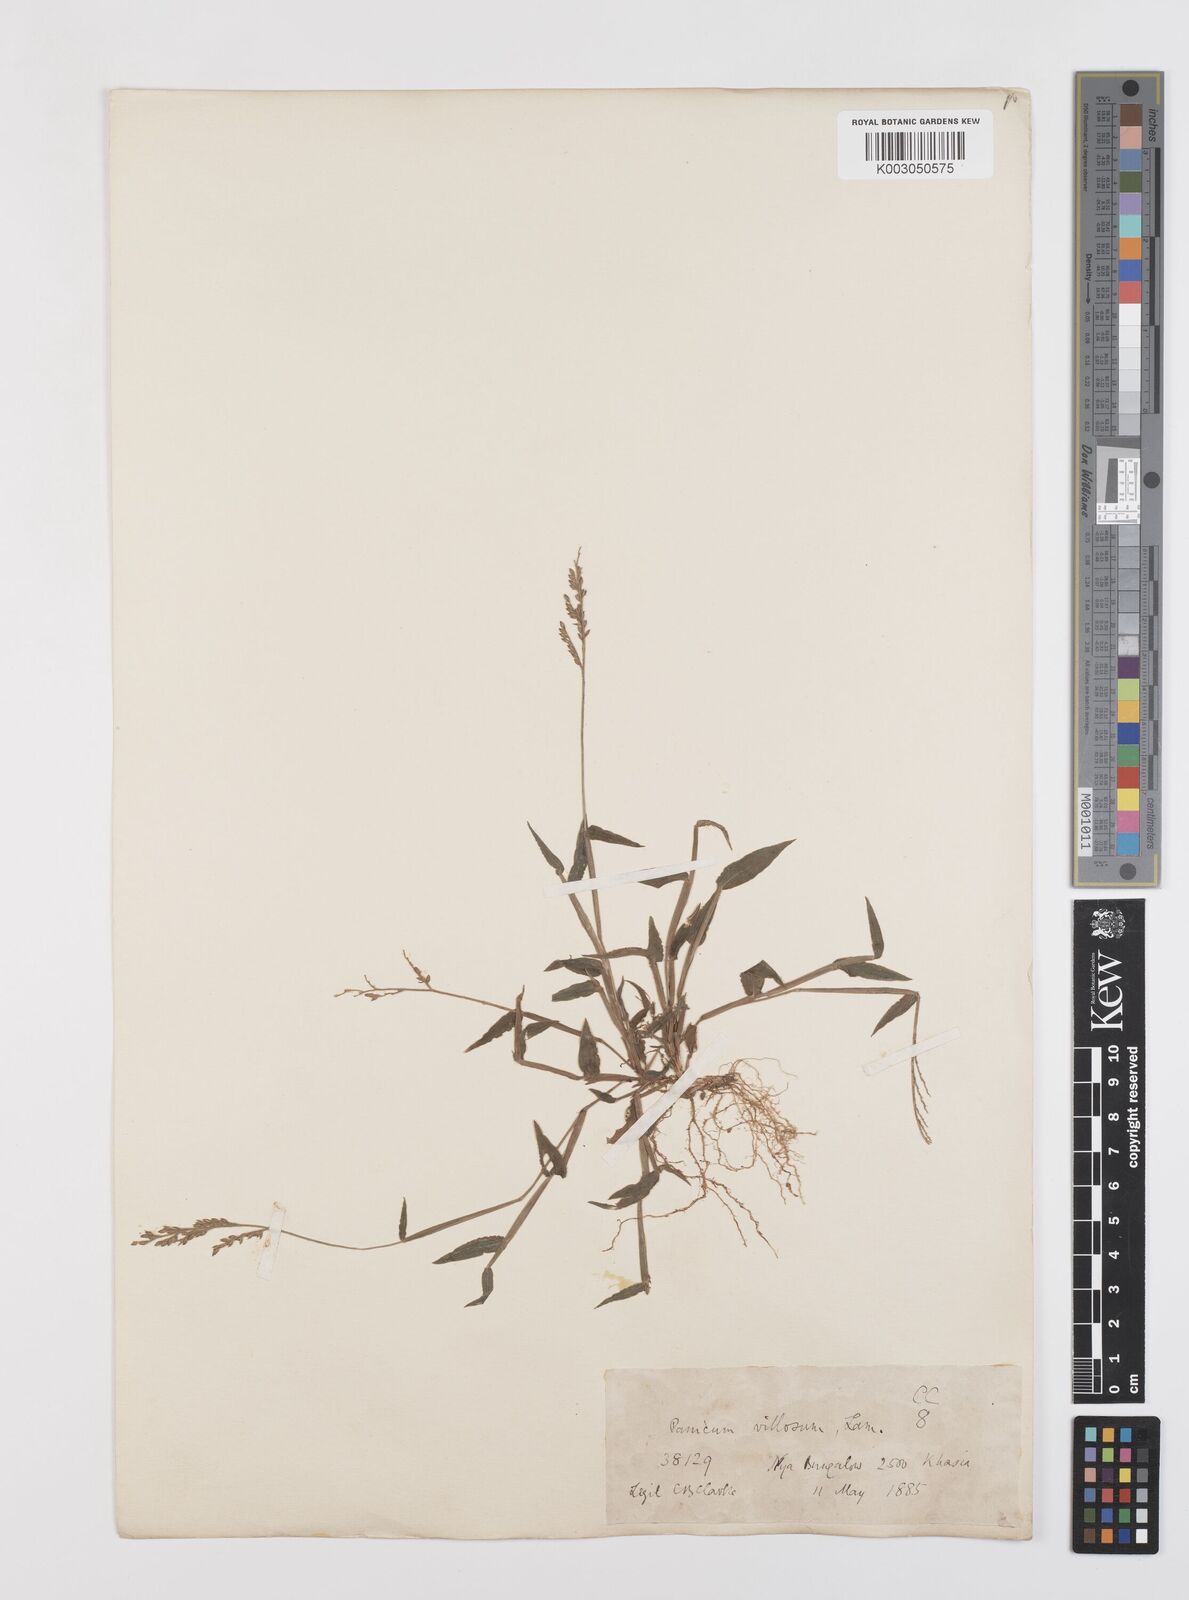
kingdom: Plantae
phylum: Tracheophyta
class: Liliopsida
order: Poales
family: Poaceae
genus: Urochloa
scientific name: Urochloa villosa
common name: Hairy signalgrass
